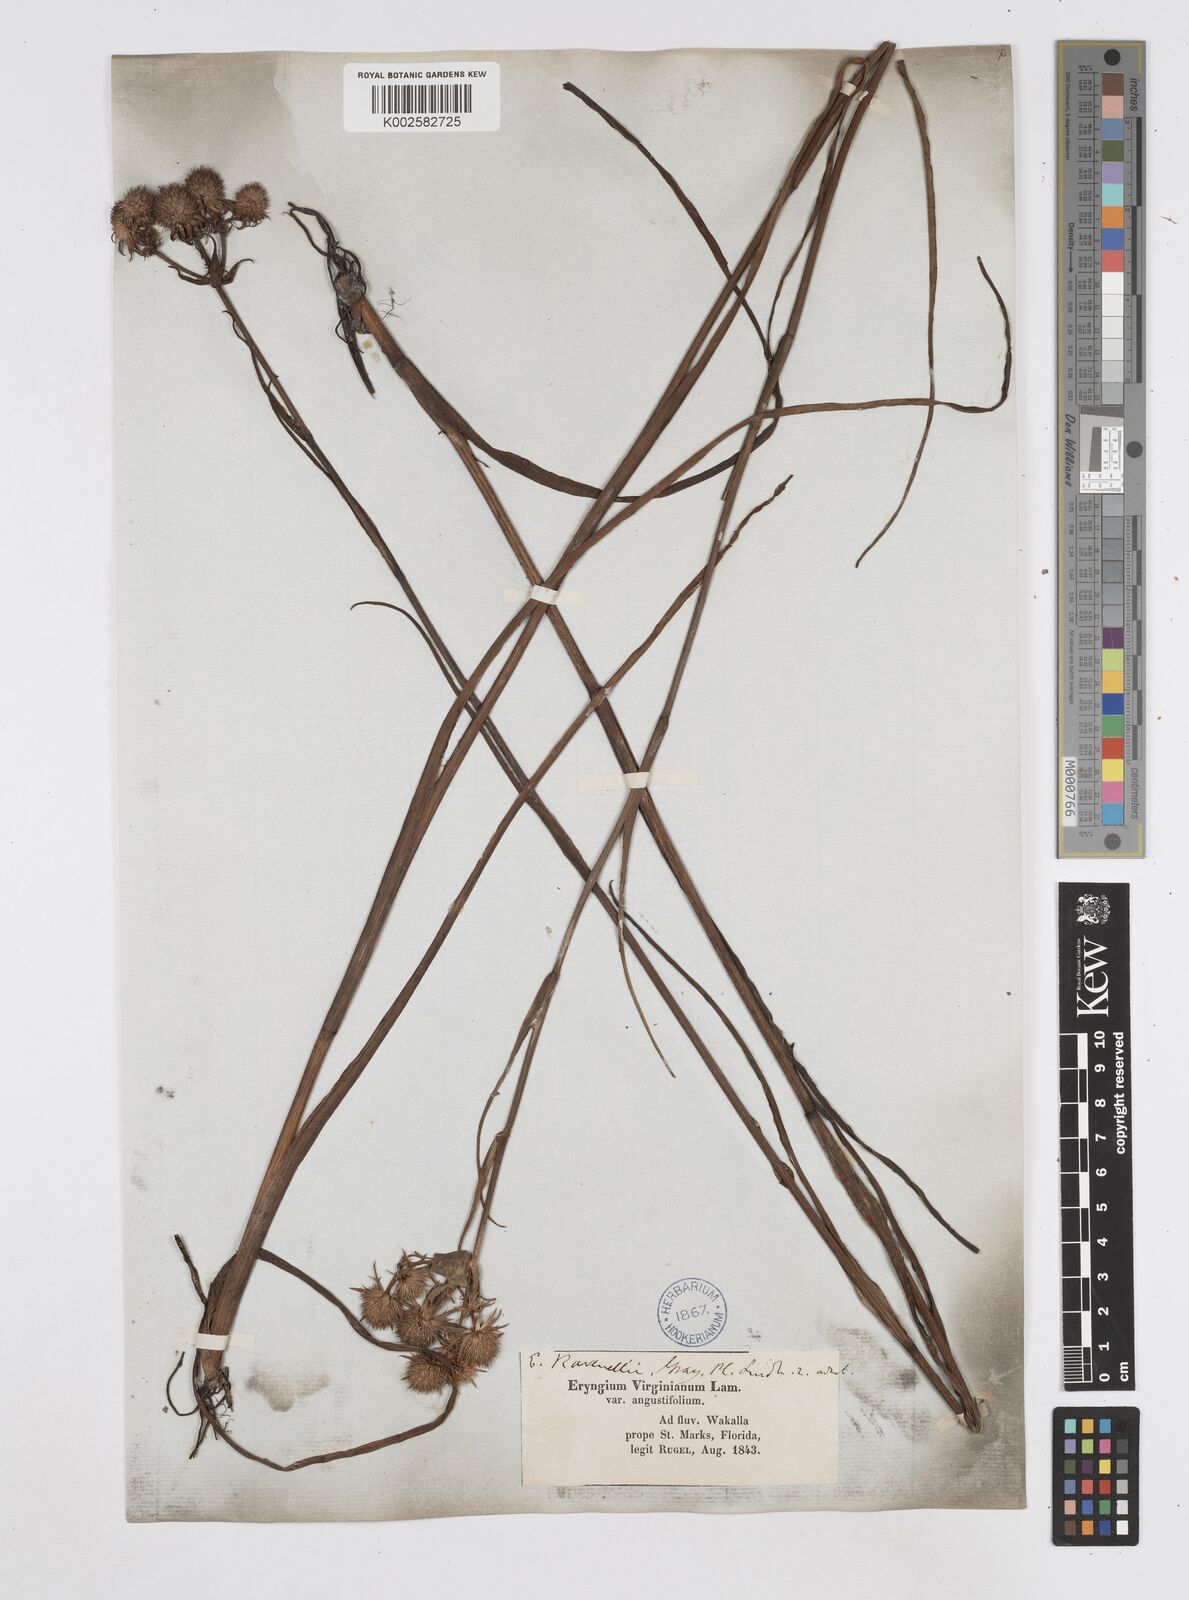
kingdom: Plantae
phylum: Tracheophyta
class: Magnoliopsida
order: Apiales
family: Apiaceae
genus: Eryngium
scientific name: Eryngium aquaticum
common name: Water eryngo
